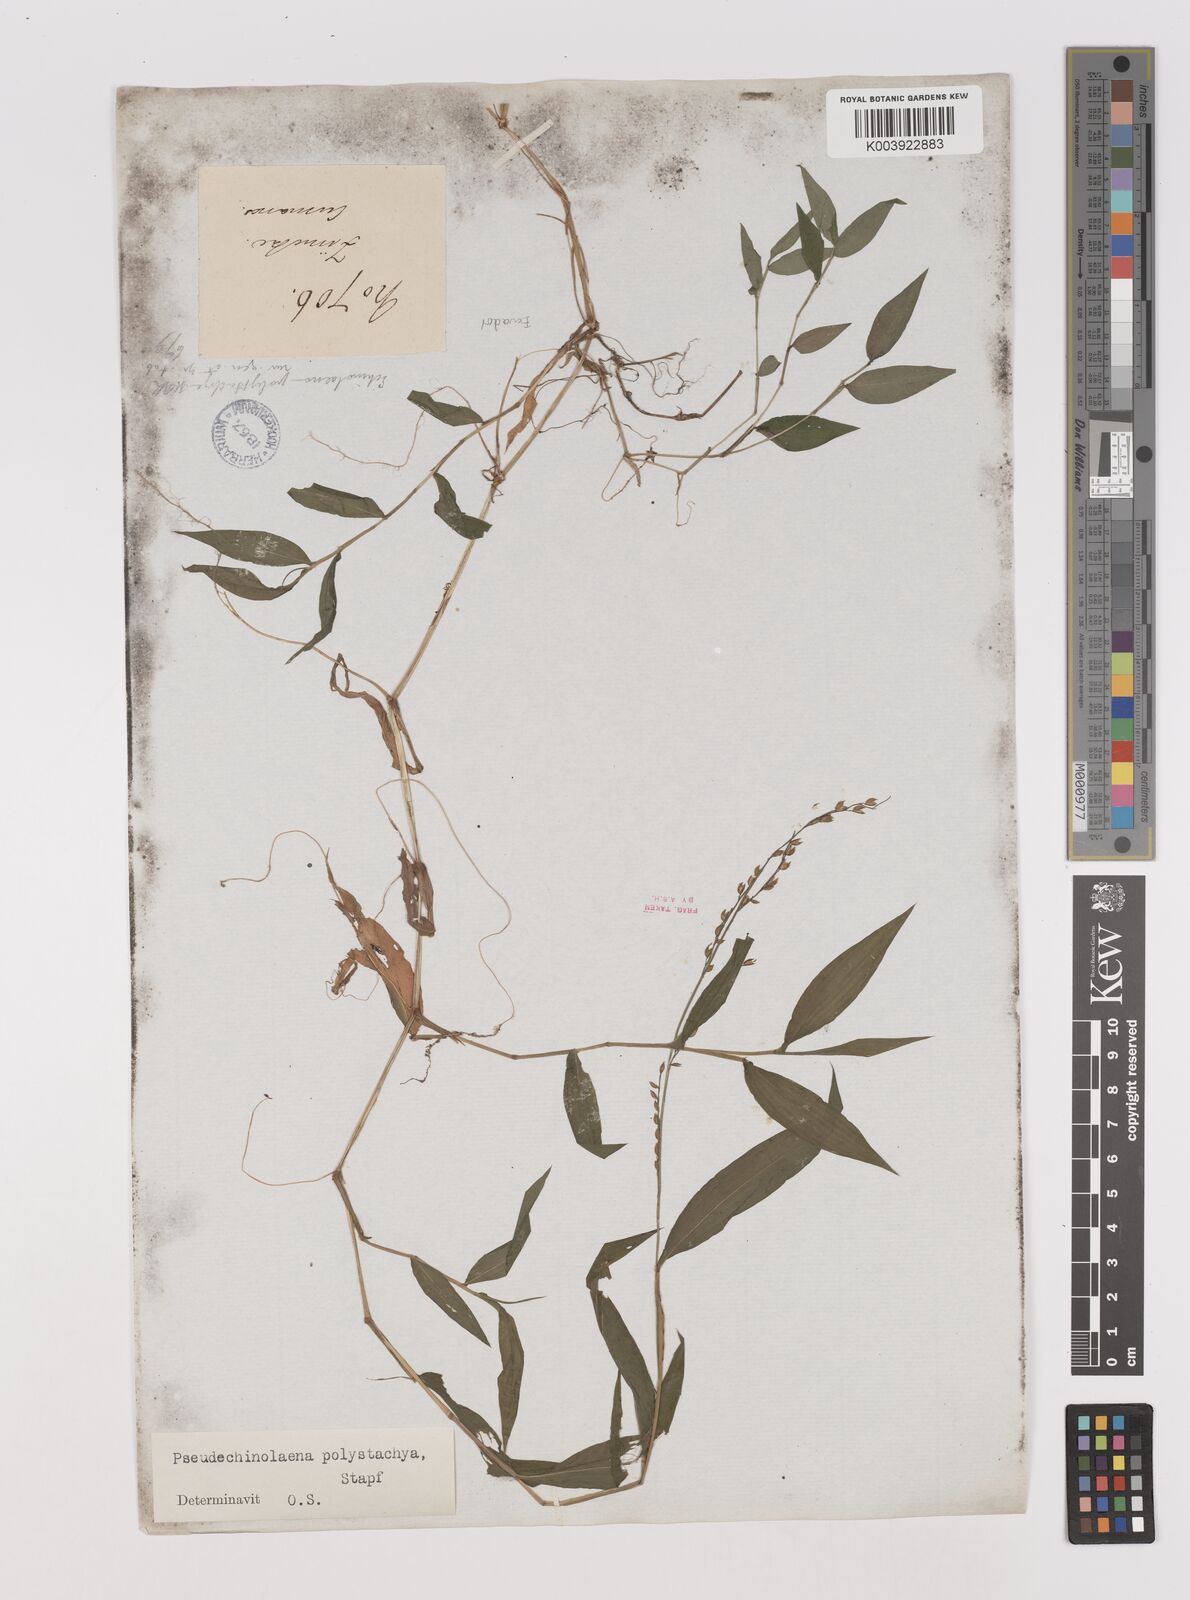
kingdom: Plantae
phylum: Tracheophyta
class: Liliopsida
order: Poales
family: Poaceae
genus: Pseudechinolaena
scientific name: Pseudechinolaena polystachya
